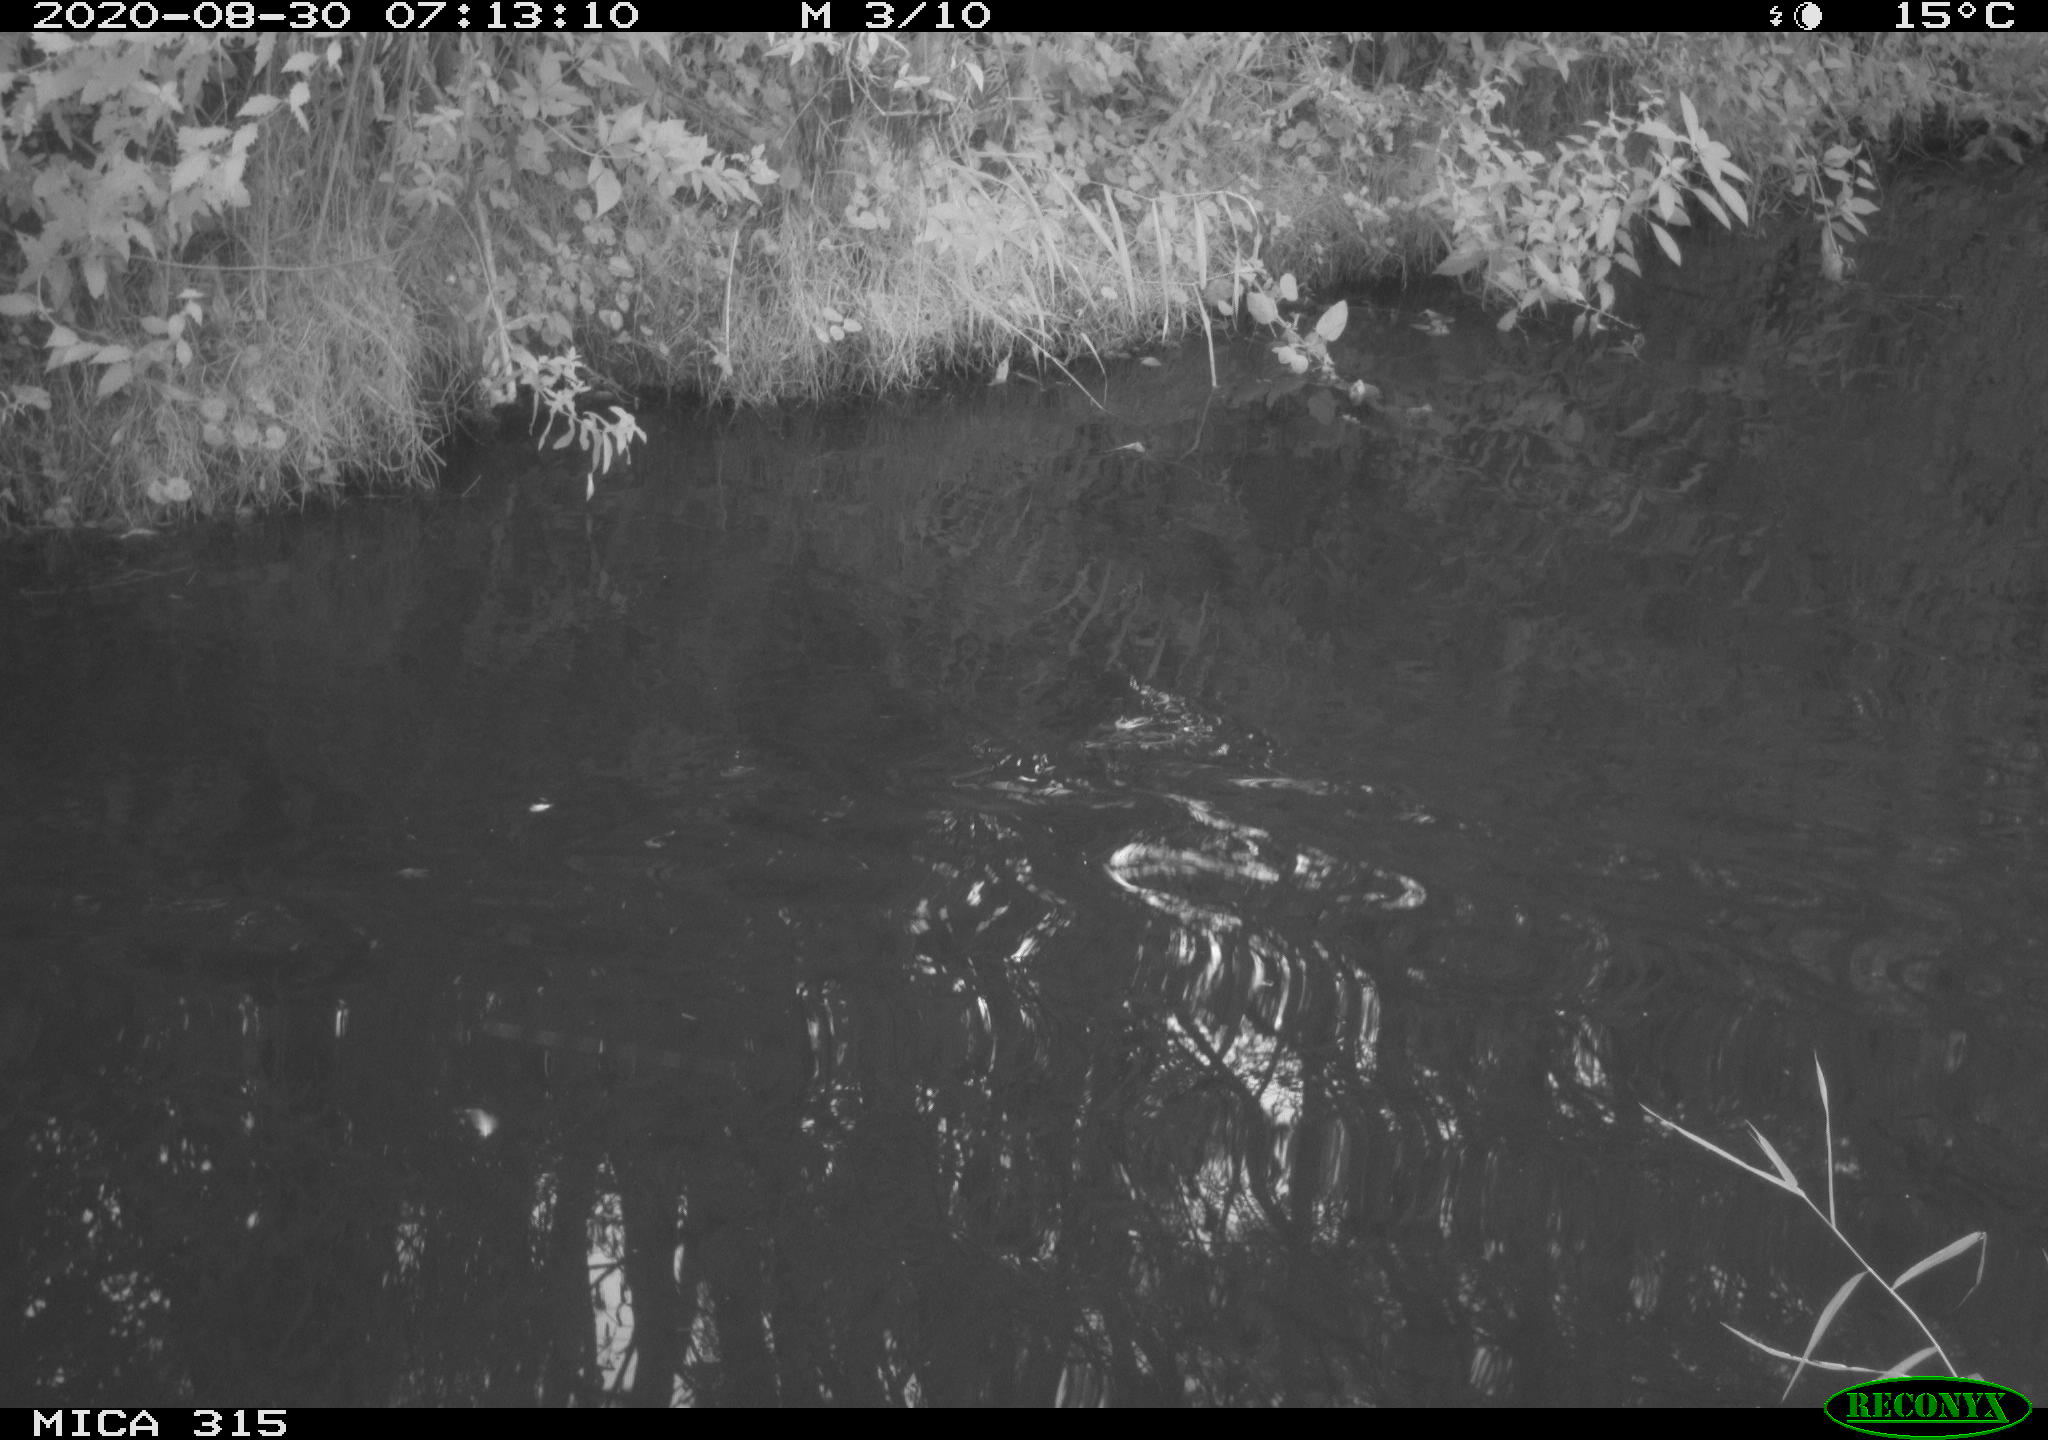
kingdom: Animalia
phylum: Chordata
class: Aves
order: Anseriformes
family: Anatidae
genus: Anas
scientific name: Anas platyrhynchos
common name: Mallard
